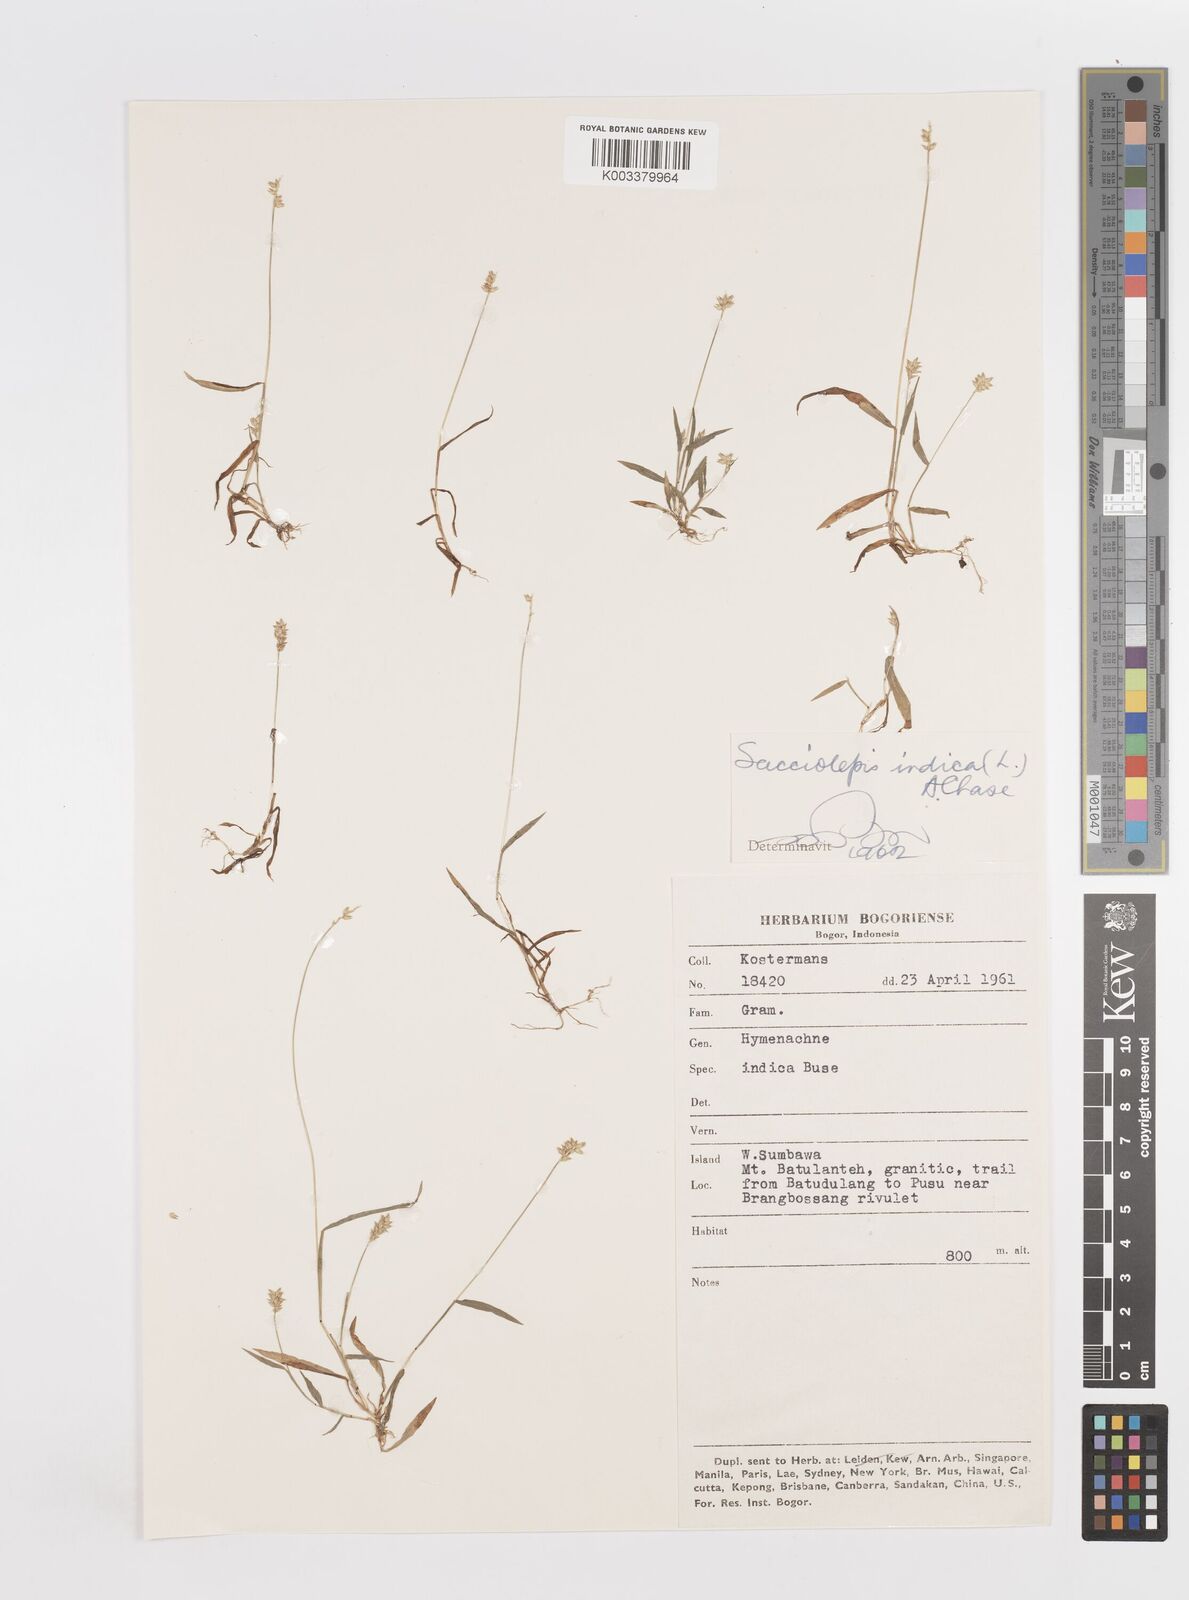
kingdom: Plantae
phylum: Tracheophyta
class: Liliopsida
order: Poales
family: Poaceae
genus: Sacciolepis
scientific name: Sacciolepis indica
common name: Glenwoodgrass
